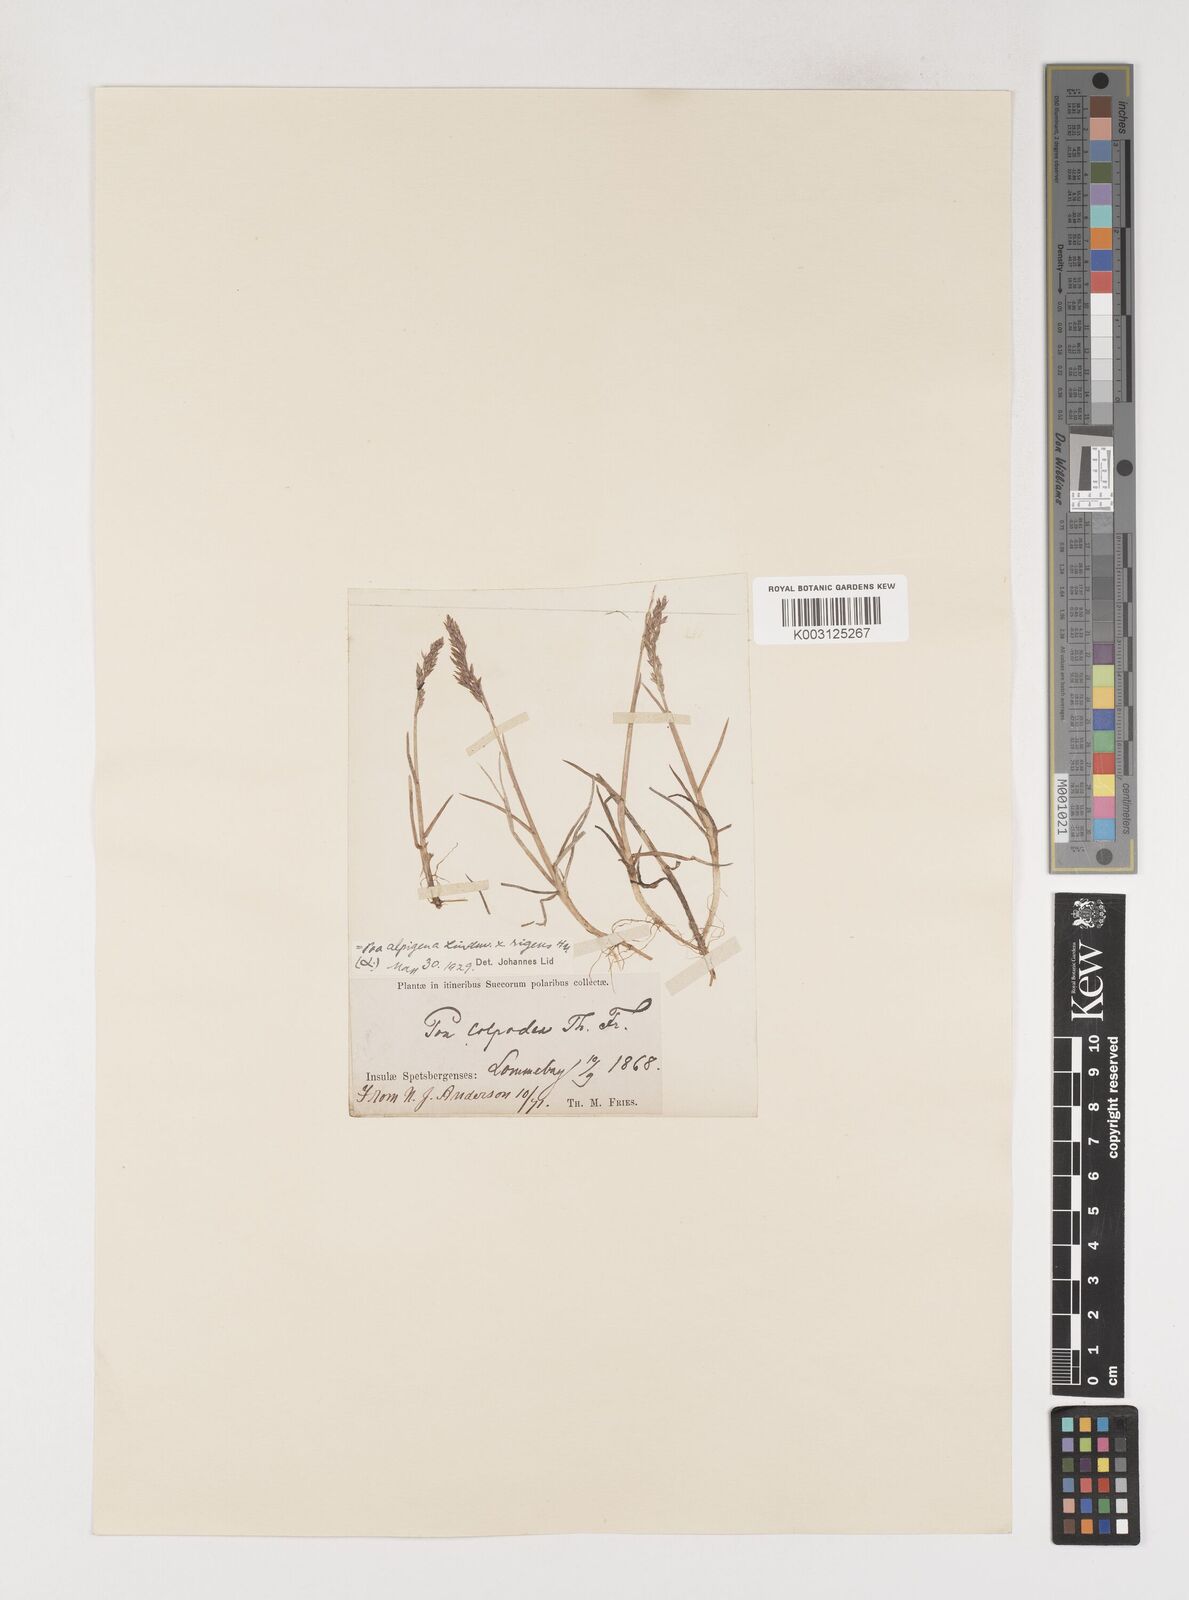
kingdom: Plantae
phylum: Tracheophyta
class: Liliopsida
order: Poales
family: Poaceae
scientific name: Poaceae
